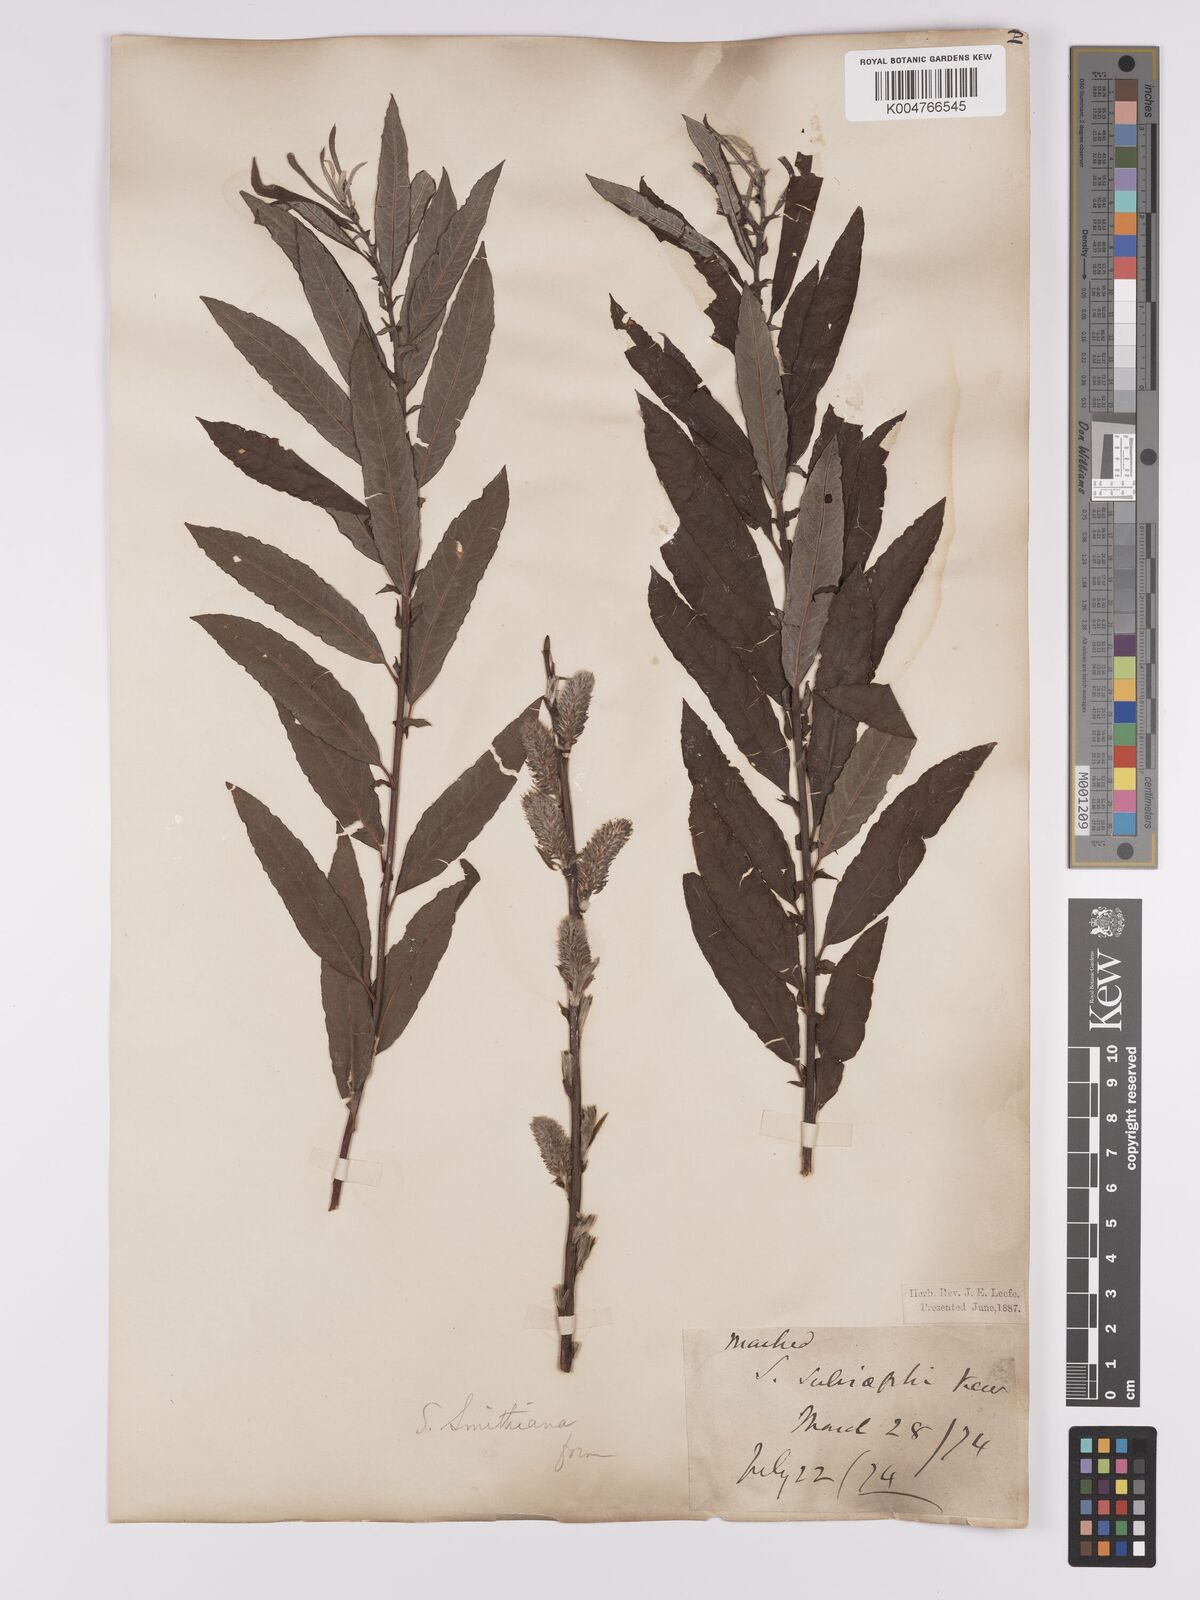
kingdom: Plantae
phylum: Tracheophyta
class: Magnoliopsida
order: Malpighiales
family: Salicaceae
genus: Salix
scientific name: Salix caprea
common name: Goat willow
